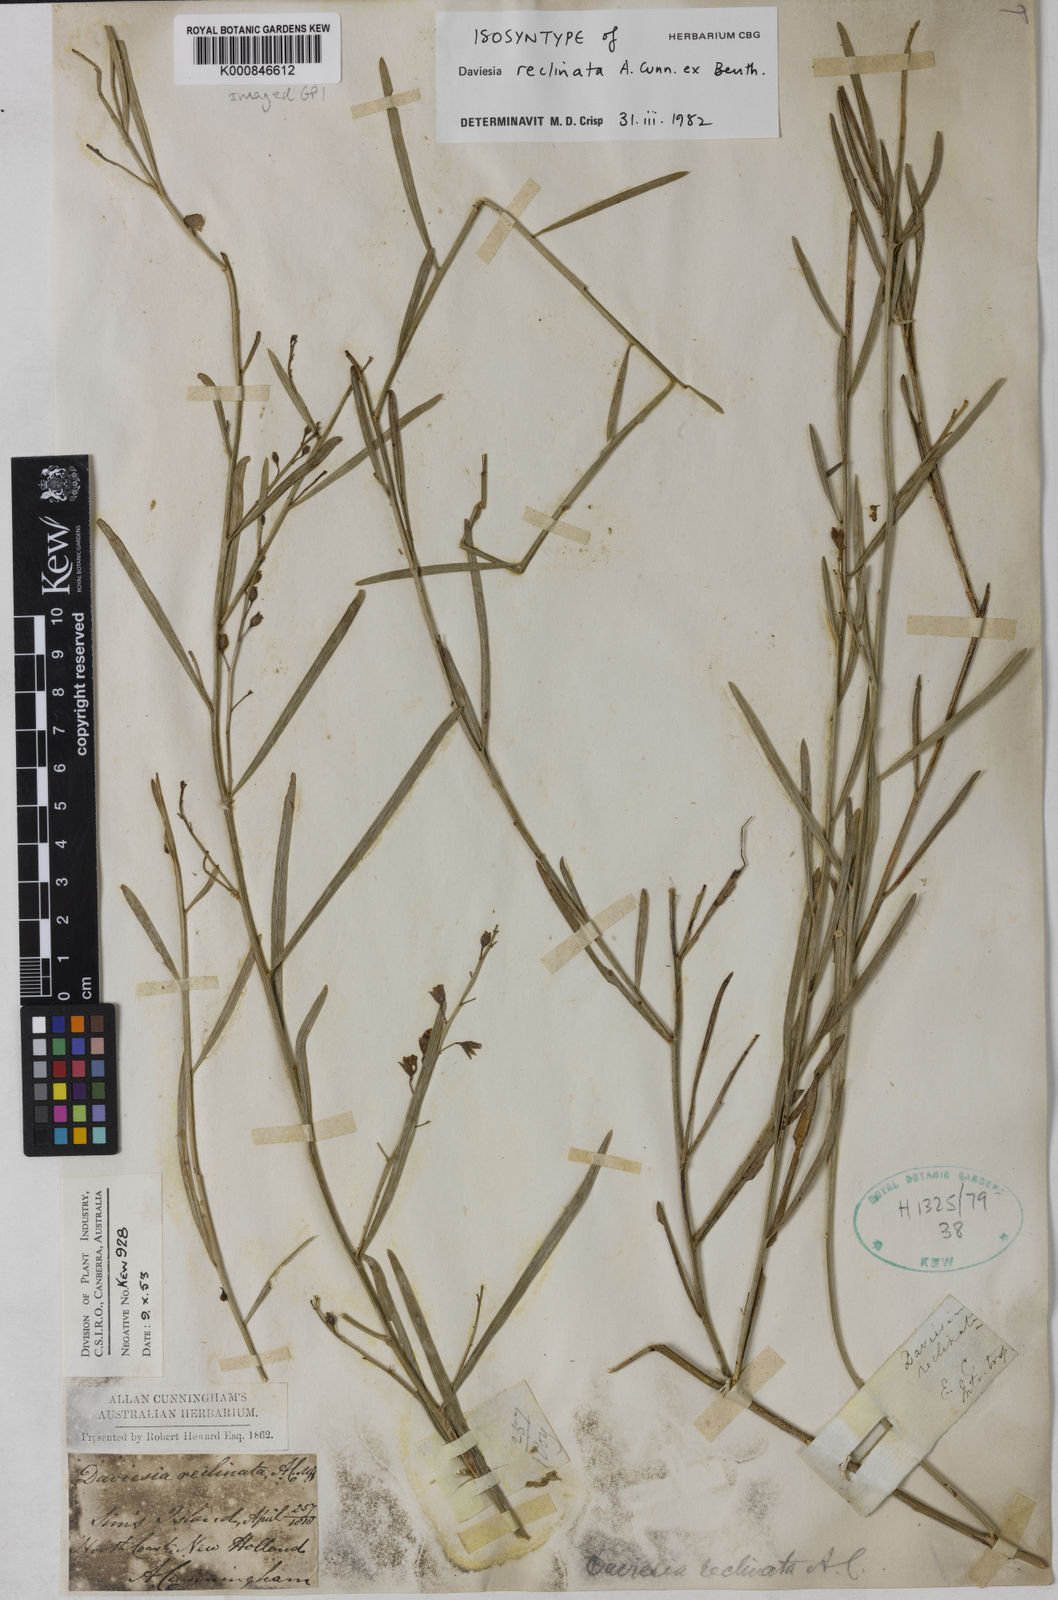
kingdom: Plantae
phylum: Tracheophyta
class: Magnoliopsida
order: Fabales
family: Fabaceae
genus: Daviesia
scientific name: Daviesia reclinata
